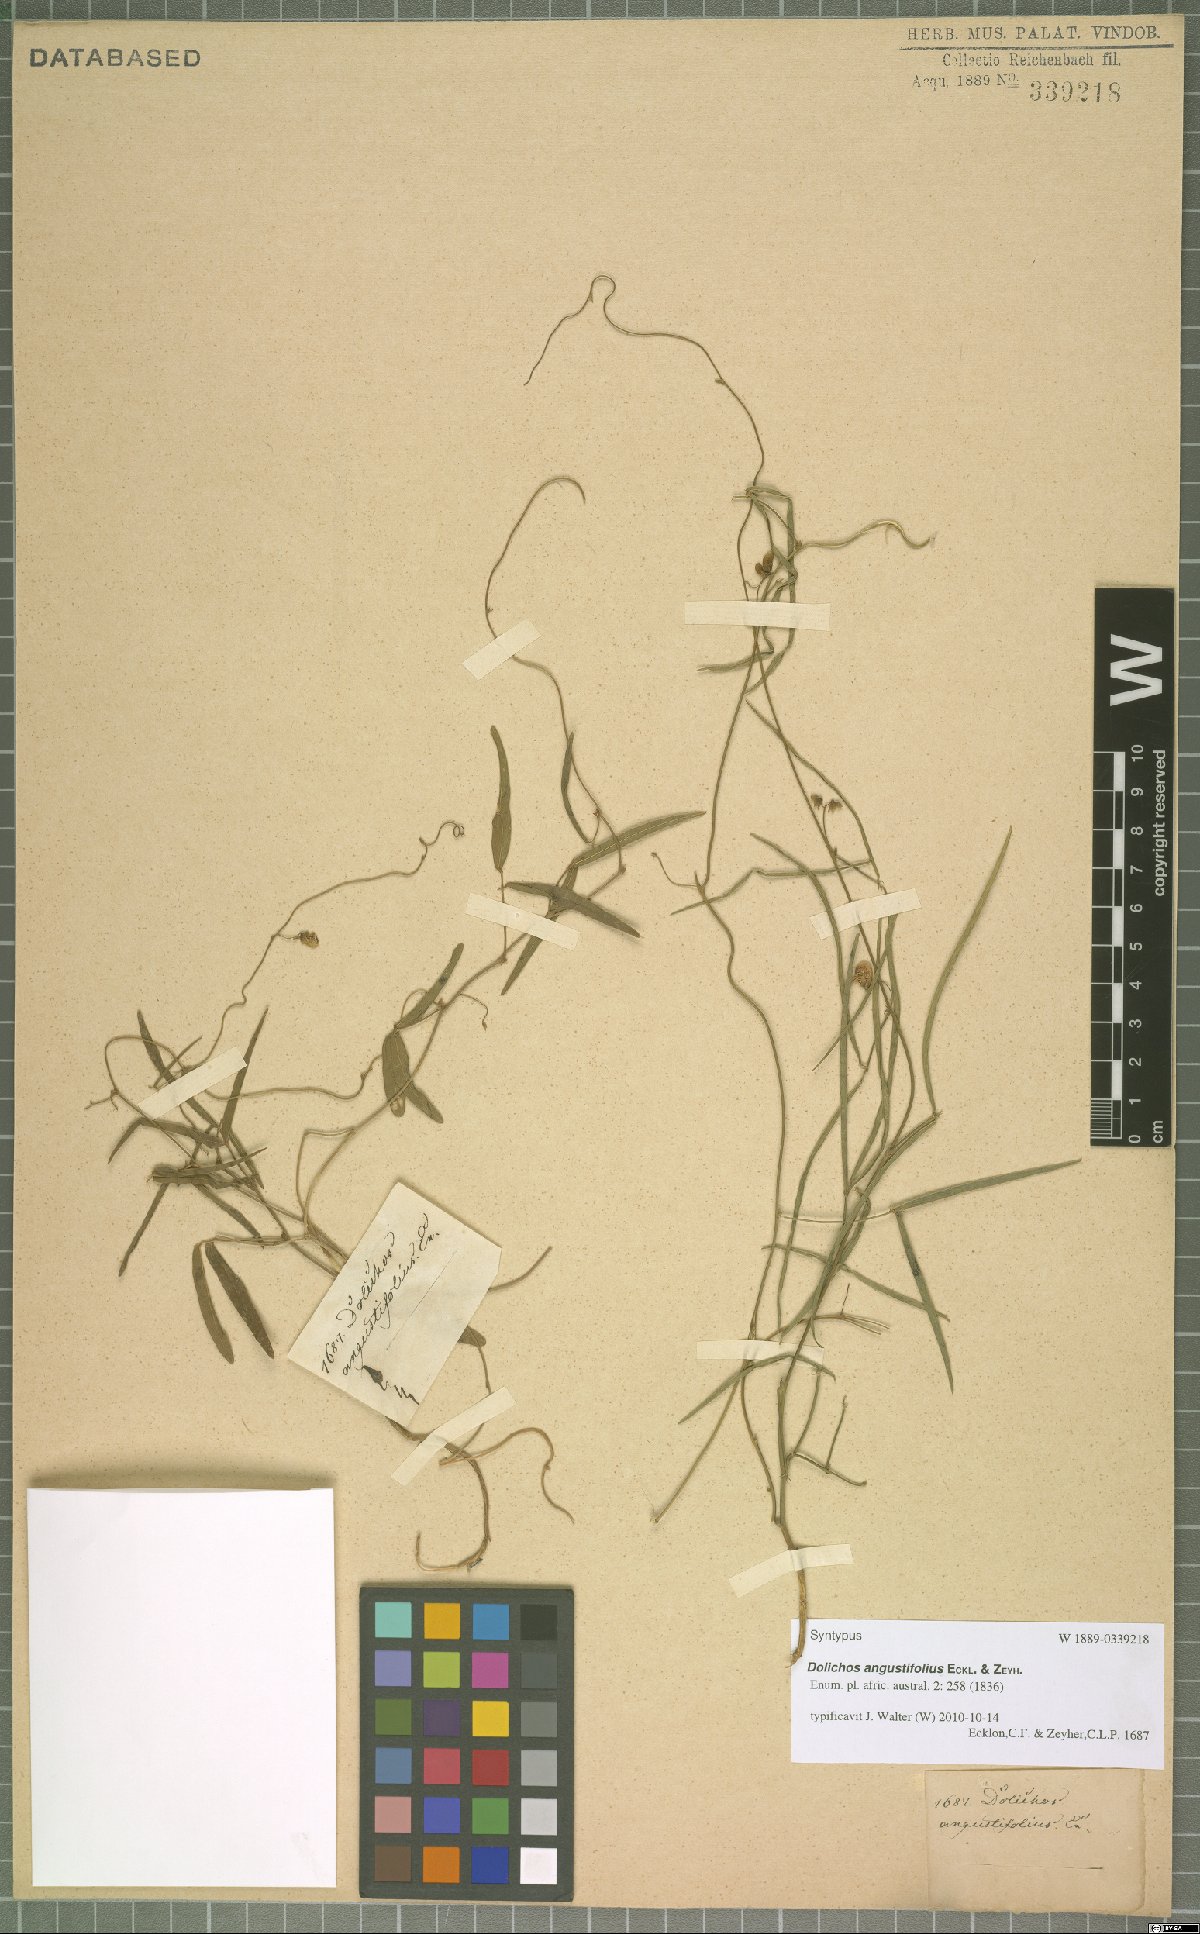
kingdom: Plantae
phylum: Tracheophyta
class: Magnoliopsida
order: Fabales
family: Fabaceae
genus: Dolichos
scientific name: Dolichos angustifolius
